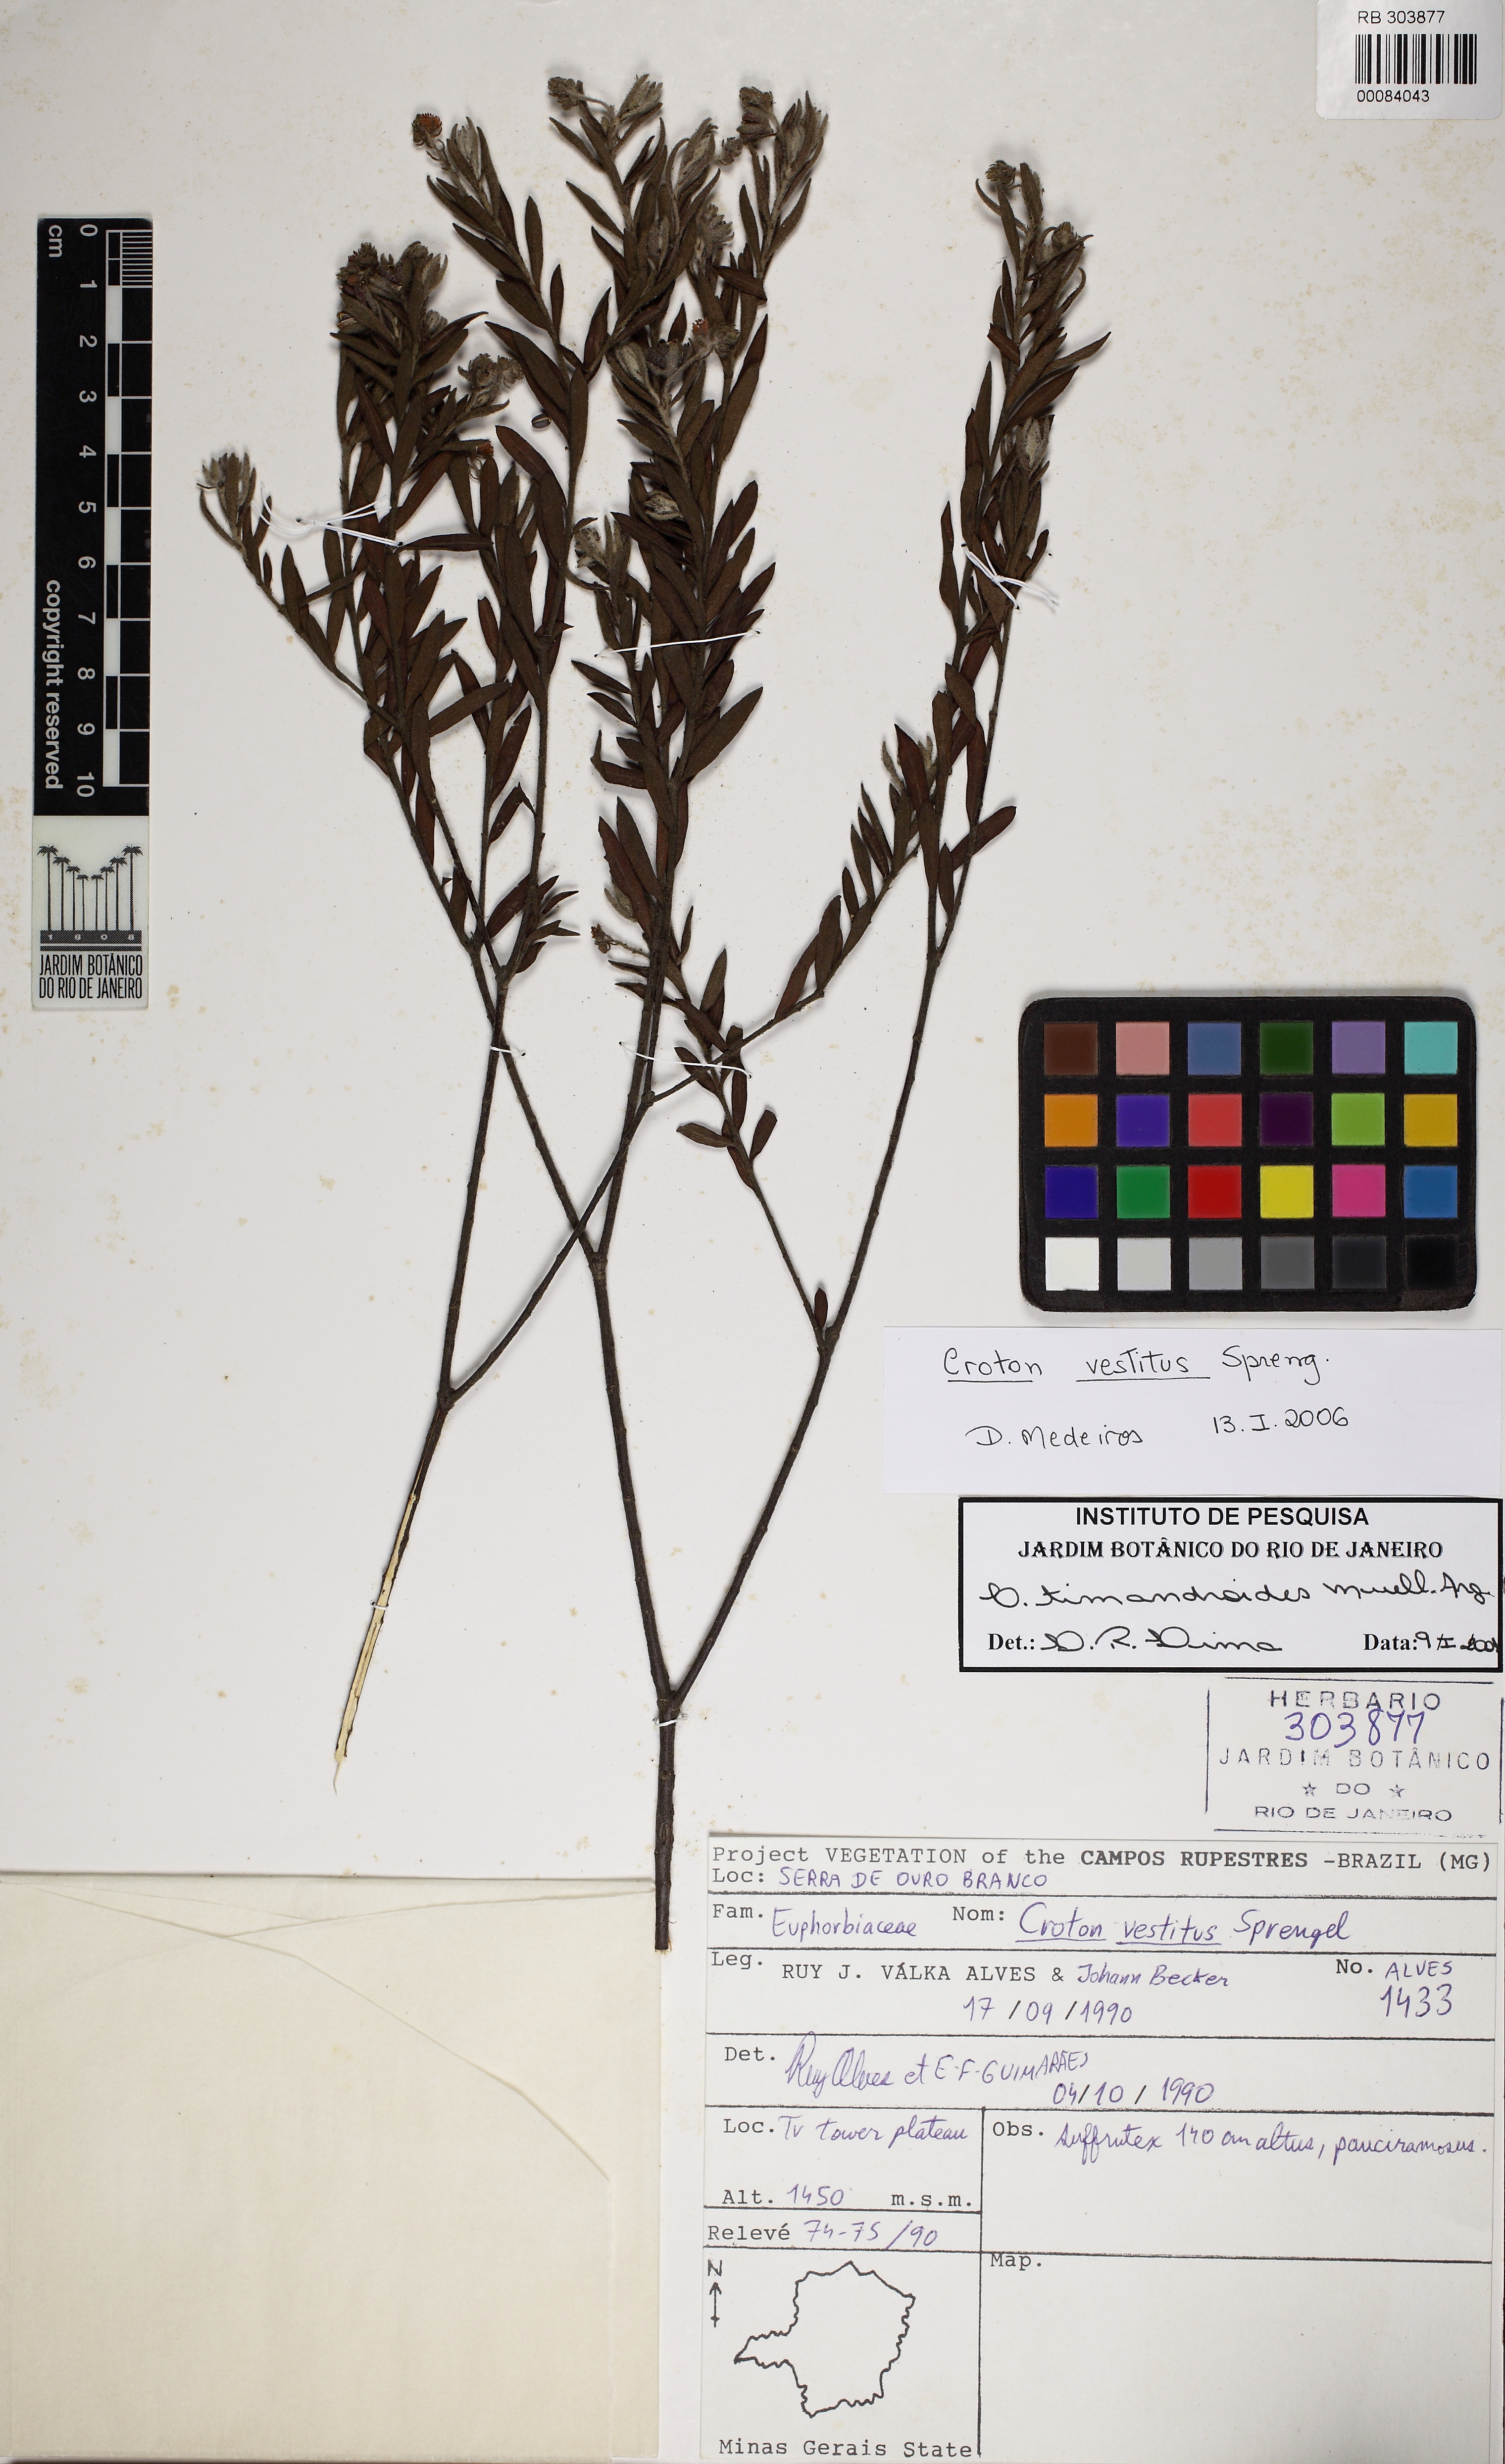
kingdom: Plantae
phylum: Tracheophyta
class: Magnoliopsida
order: Malpighiales
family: Euphorbiaceae
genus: Croton
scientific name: Croton vestitus
